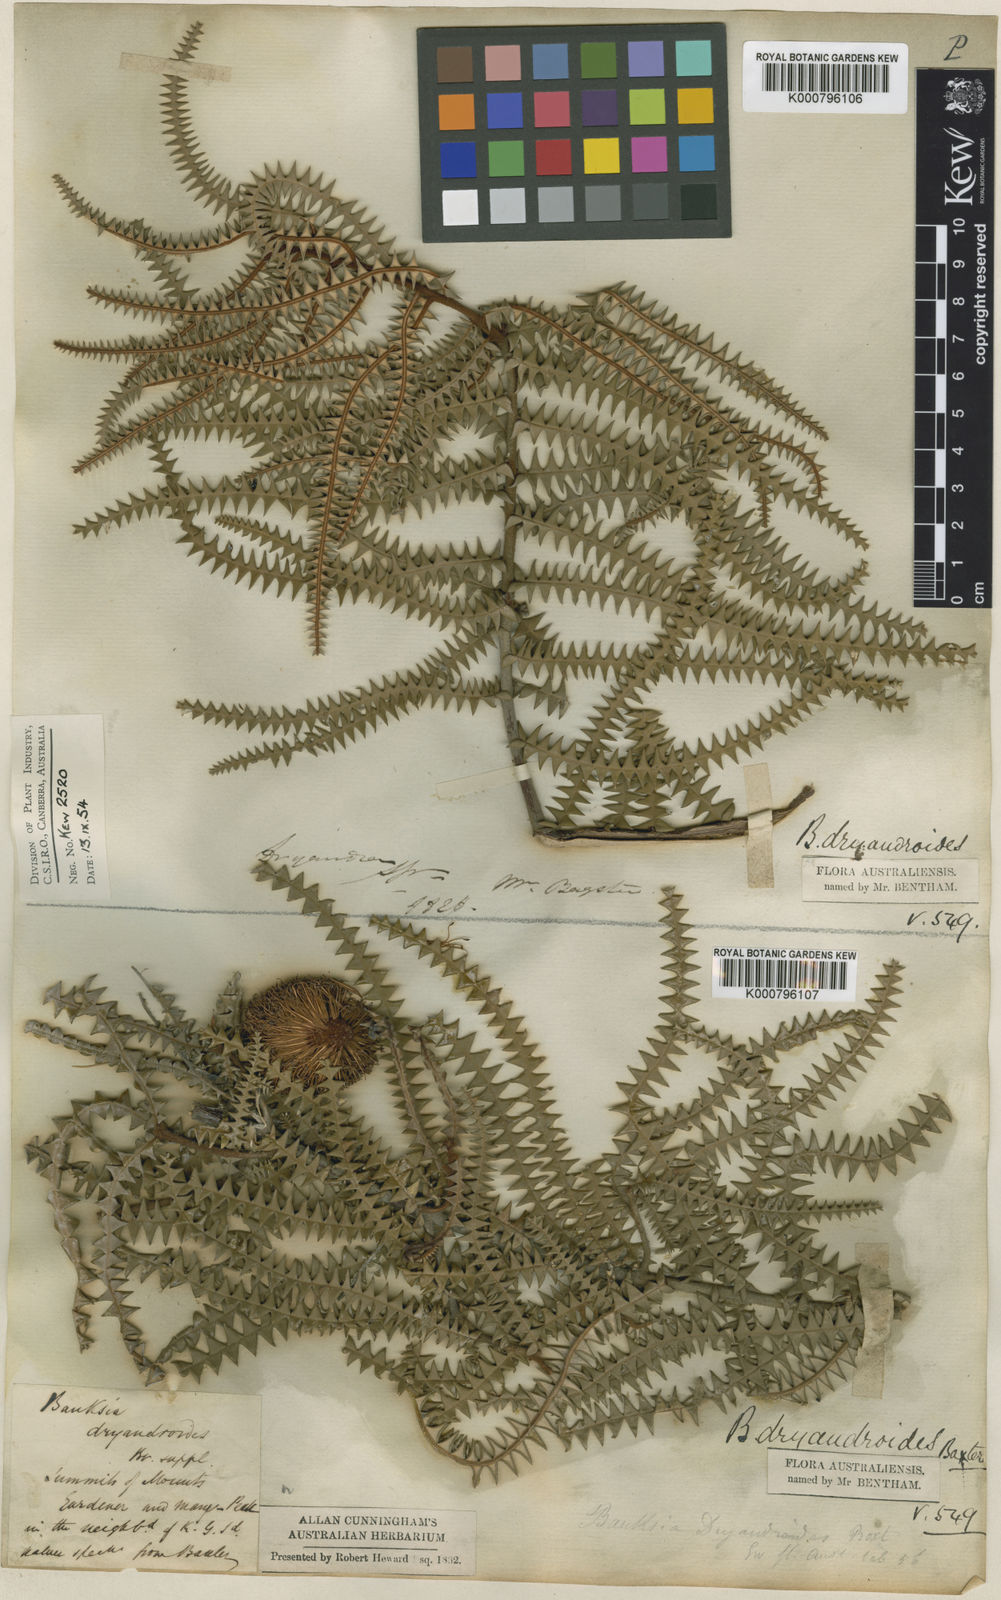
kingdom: Plantae
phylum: Tracheophyta
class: Magnoliopsida
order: Proteales
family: Proteaceae
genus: Banksia
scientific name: Banksia dryandroides
